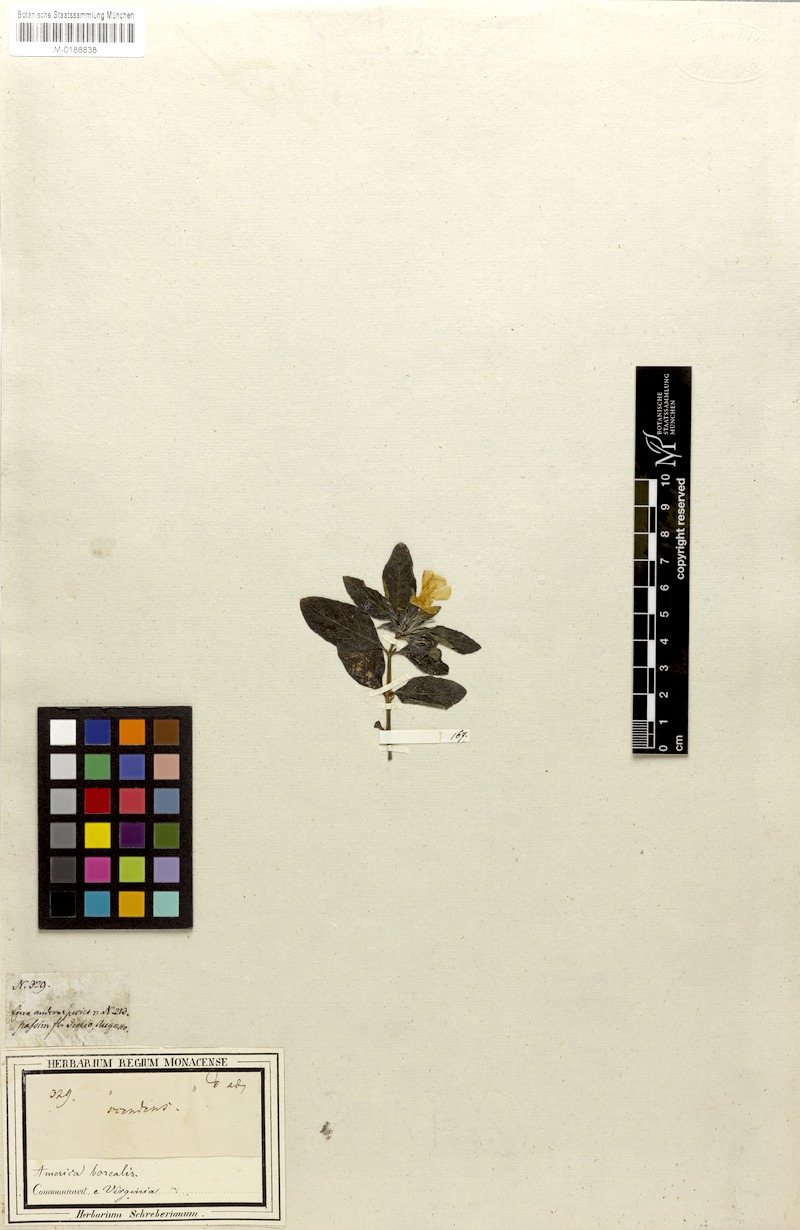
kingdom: Plantae
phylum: Tracheophyta
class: Magnoliopsida
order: Lamiales
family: Acanthaceae
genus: Ruellia
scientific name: Ruellia strepens
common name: Limestone wild petunia
